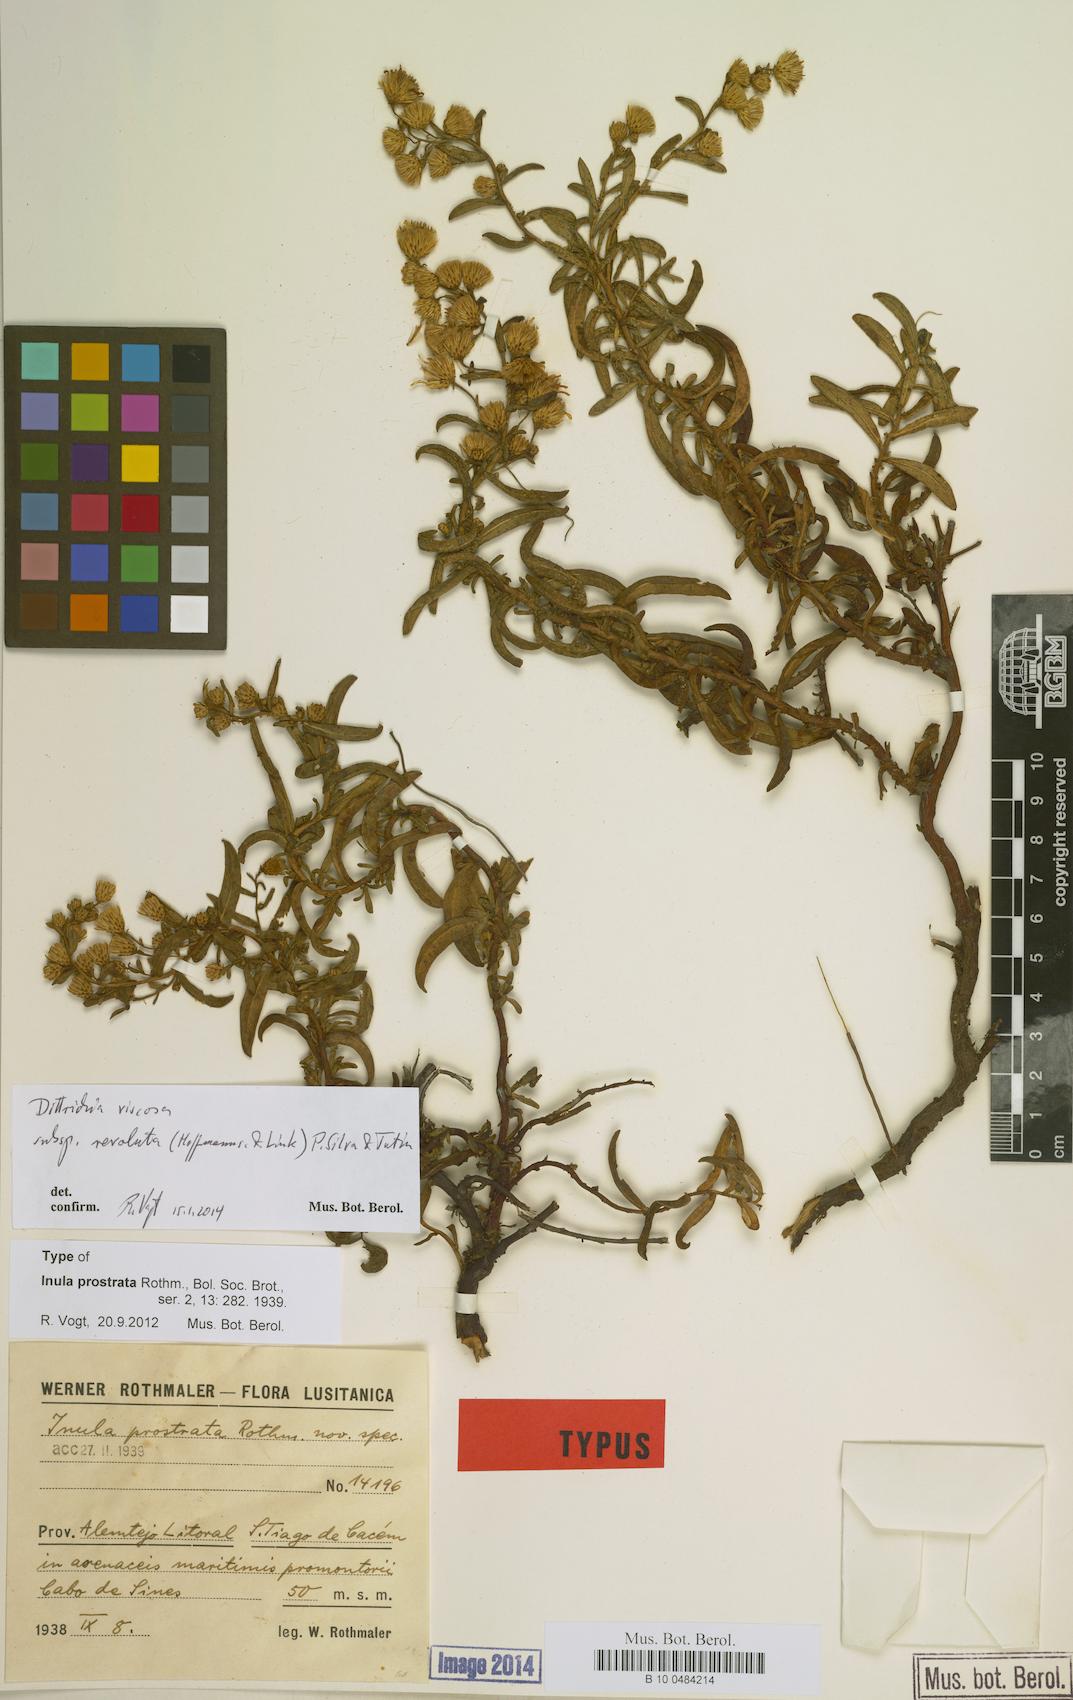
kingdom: Plantae
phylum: Tracheophyta
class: Magnoliopsida
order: Asterales
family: Asteraceae
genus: Dittrichia
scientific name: Dittrichia viscosa
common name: Woody fleabane
